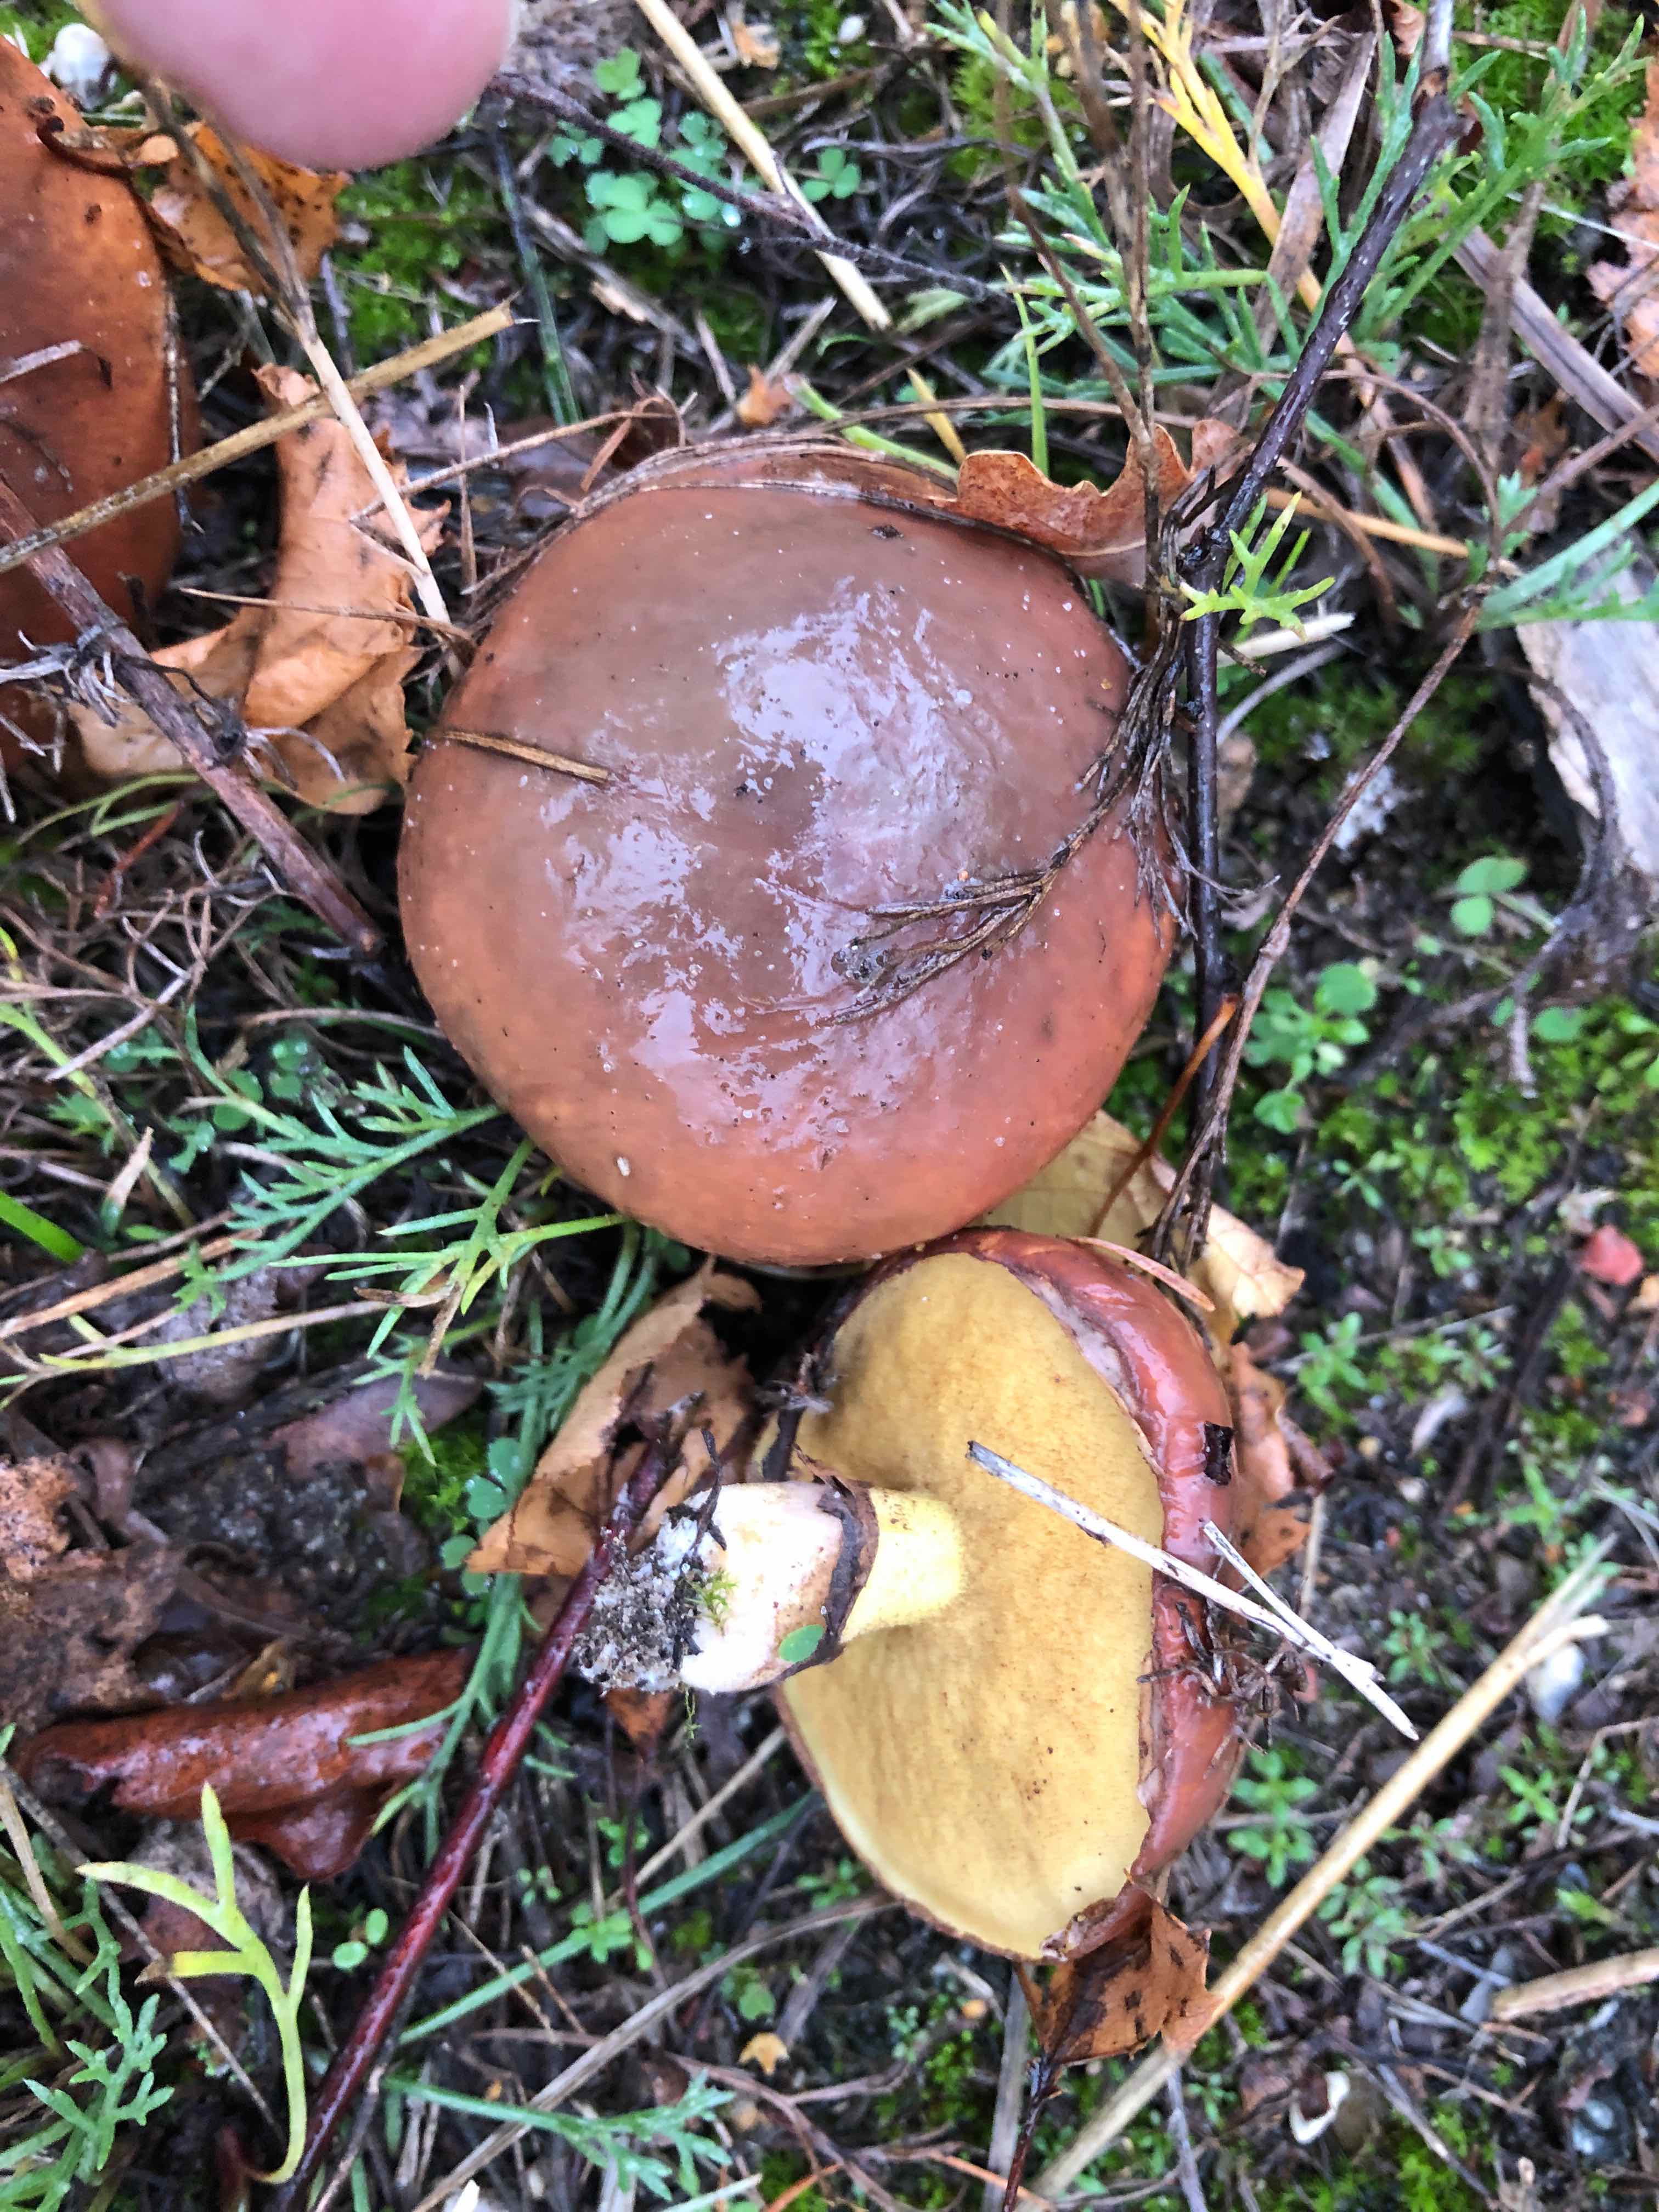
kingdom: Fungi
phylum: Basidiomycota
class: Agaricomycetes
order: Boletales
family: Suillaceae
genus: Suillus
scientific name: Suillus luteus
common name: brungul slimrørhat
